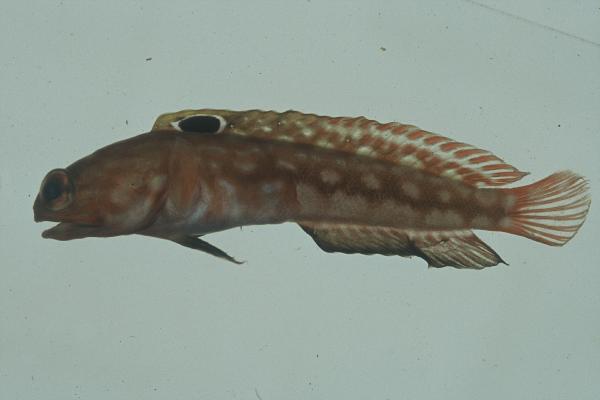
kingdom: Animalia
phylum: Chordata
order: Perciformes
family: Opistognathidae
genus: Opistognathus
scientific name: Opistognathus margaretae
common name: Halfscaled jawfish
